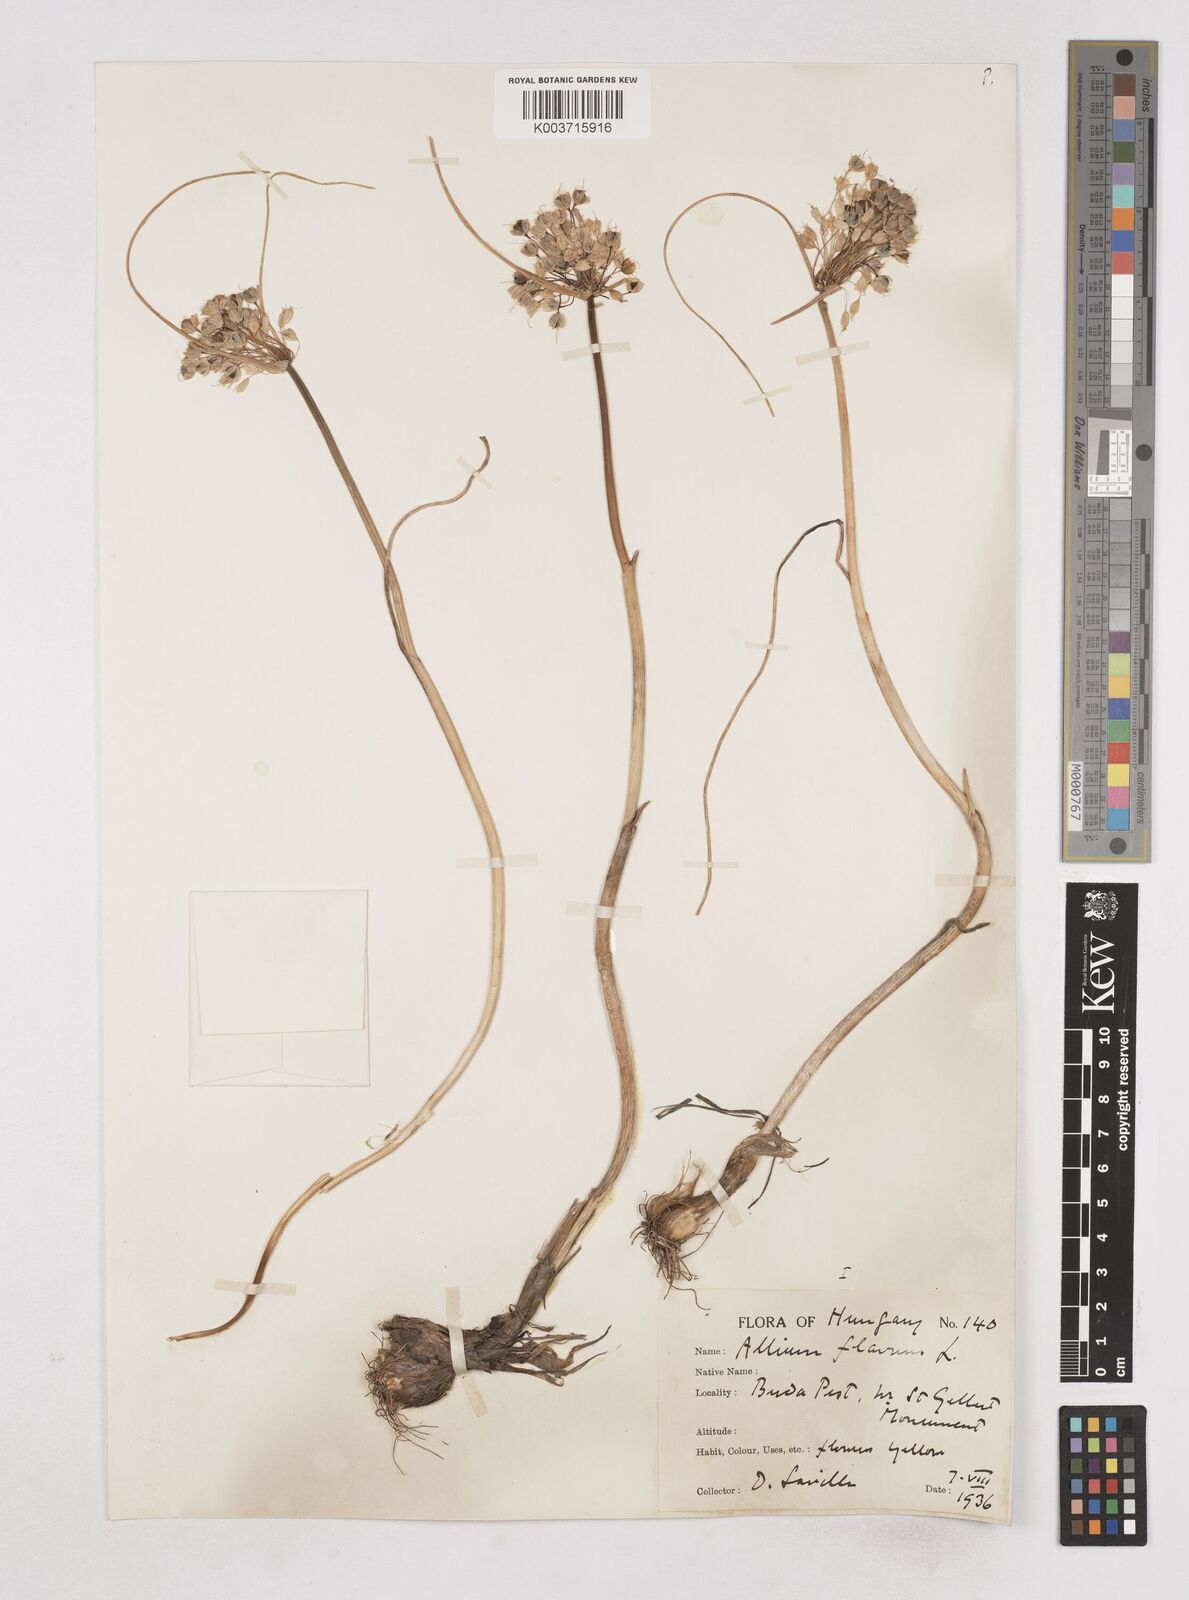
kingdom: Plantae
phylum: Tracheophyta
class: Liliopsida
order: Asparagales
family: Amaryllidaceae
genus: Allium
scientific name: Allium flavum
